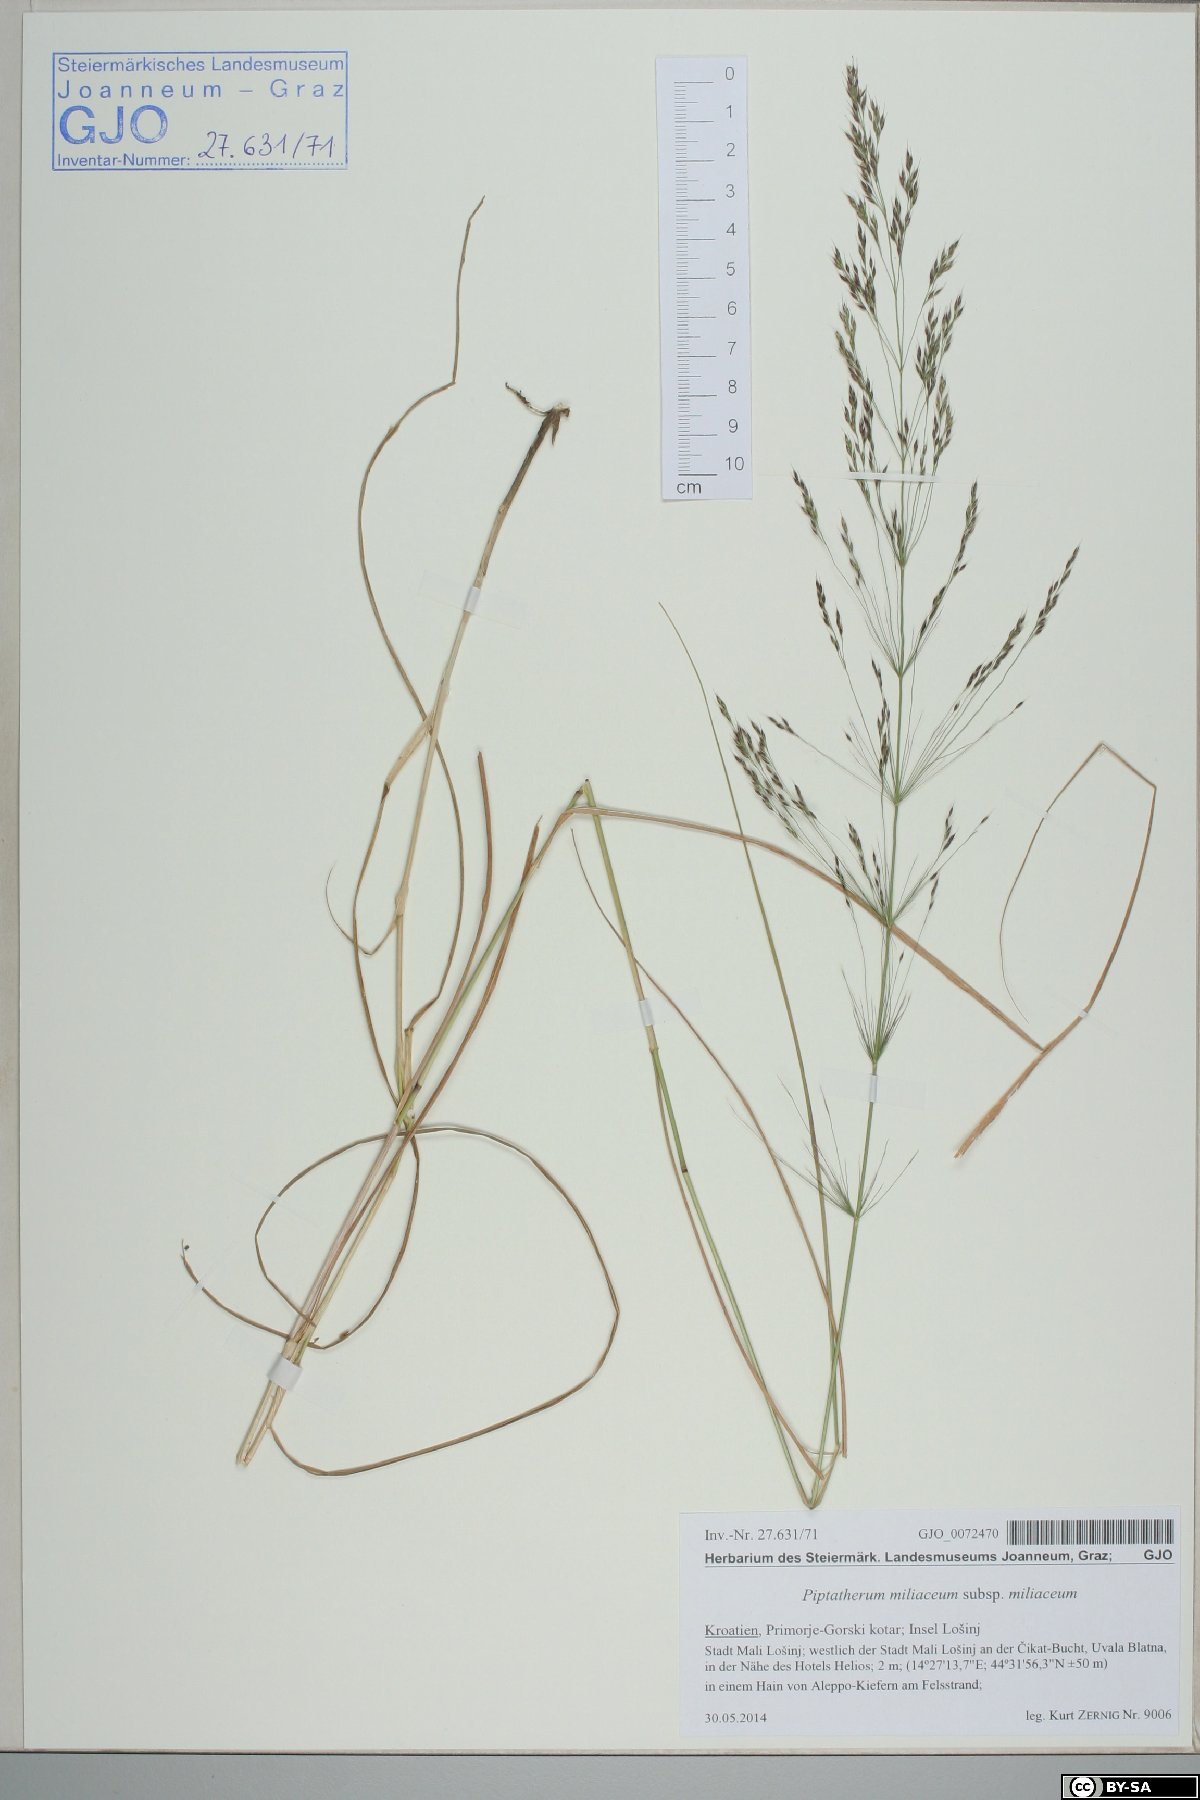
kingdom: Plantae
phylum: Tracheophyta
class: Liliopsida
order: Poales
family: Poaceae
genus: Oloptum
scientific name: Oloptum thomasii
